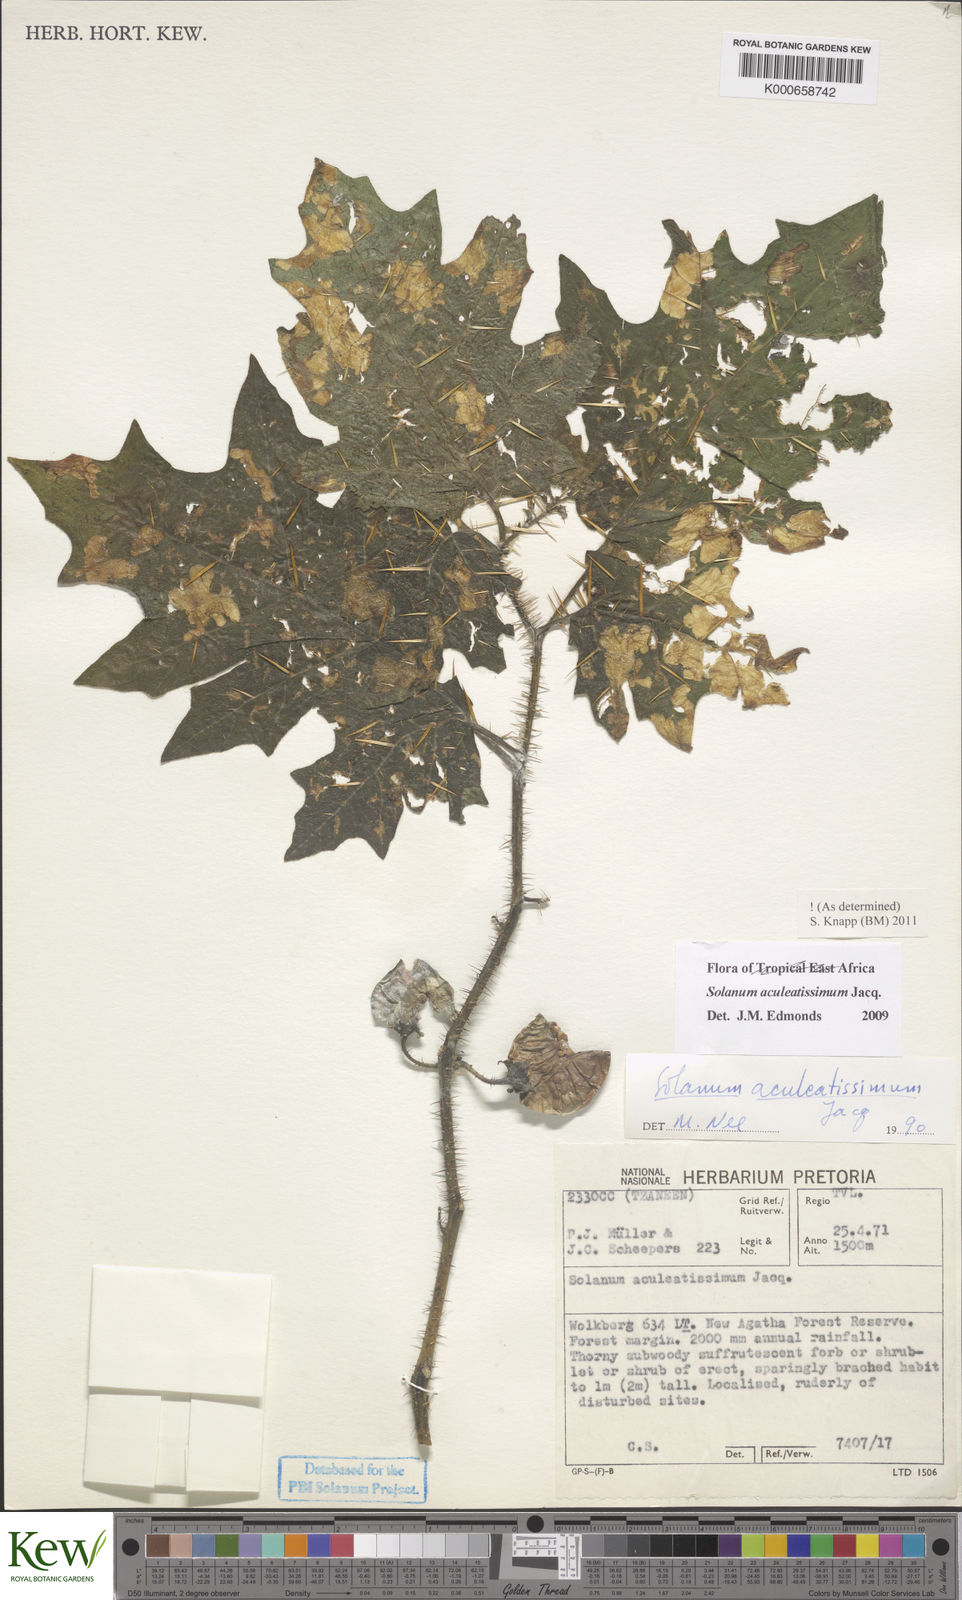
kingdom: Plantae
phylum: Tracheophyta
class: Magnoliopsida
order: Solanales
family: Solanaceae
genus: Solanum
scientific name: Solanum aculeatissimum
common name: Dutch eggplant
